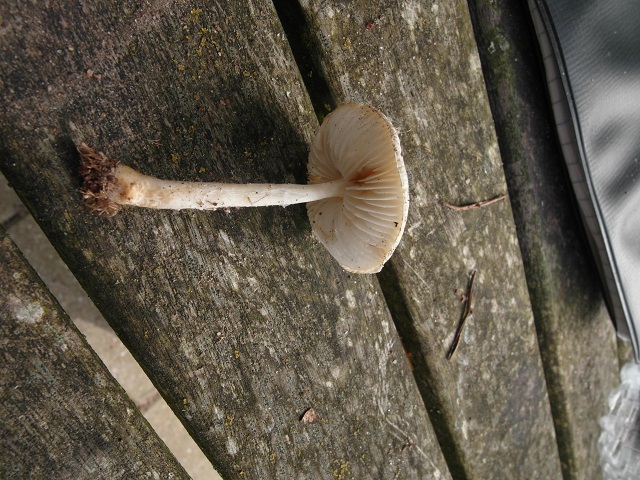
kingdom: Fungi
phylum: Basidiomycota
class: Agaricomycetes
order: Agaricales
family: Agaricaceae
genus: Lepiota
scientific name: Lepiota erminea
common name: hvid parasolhat
